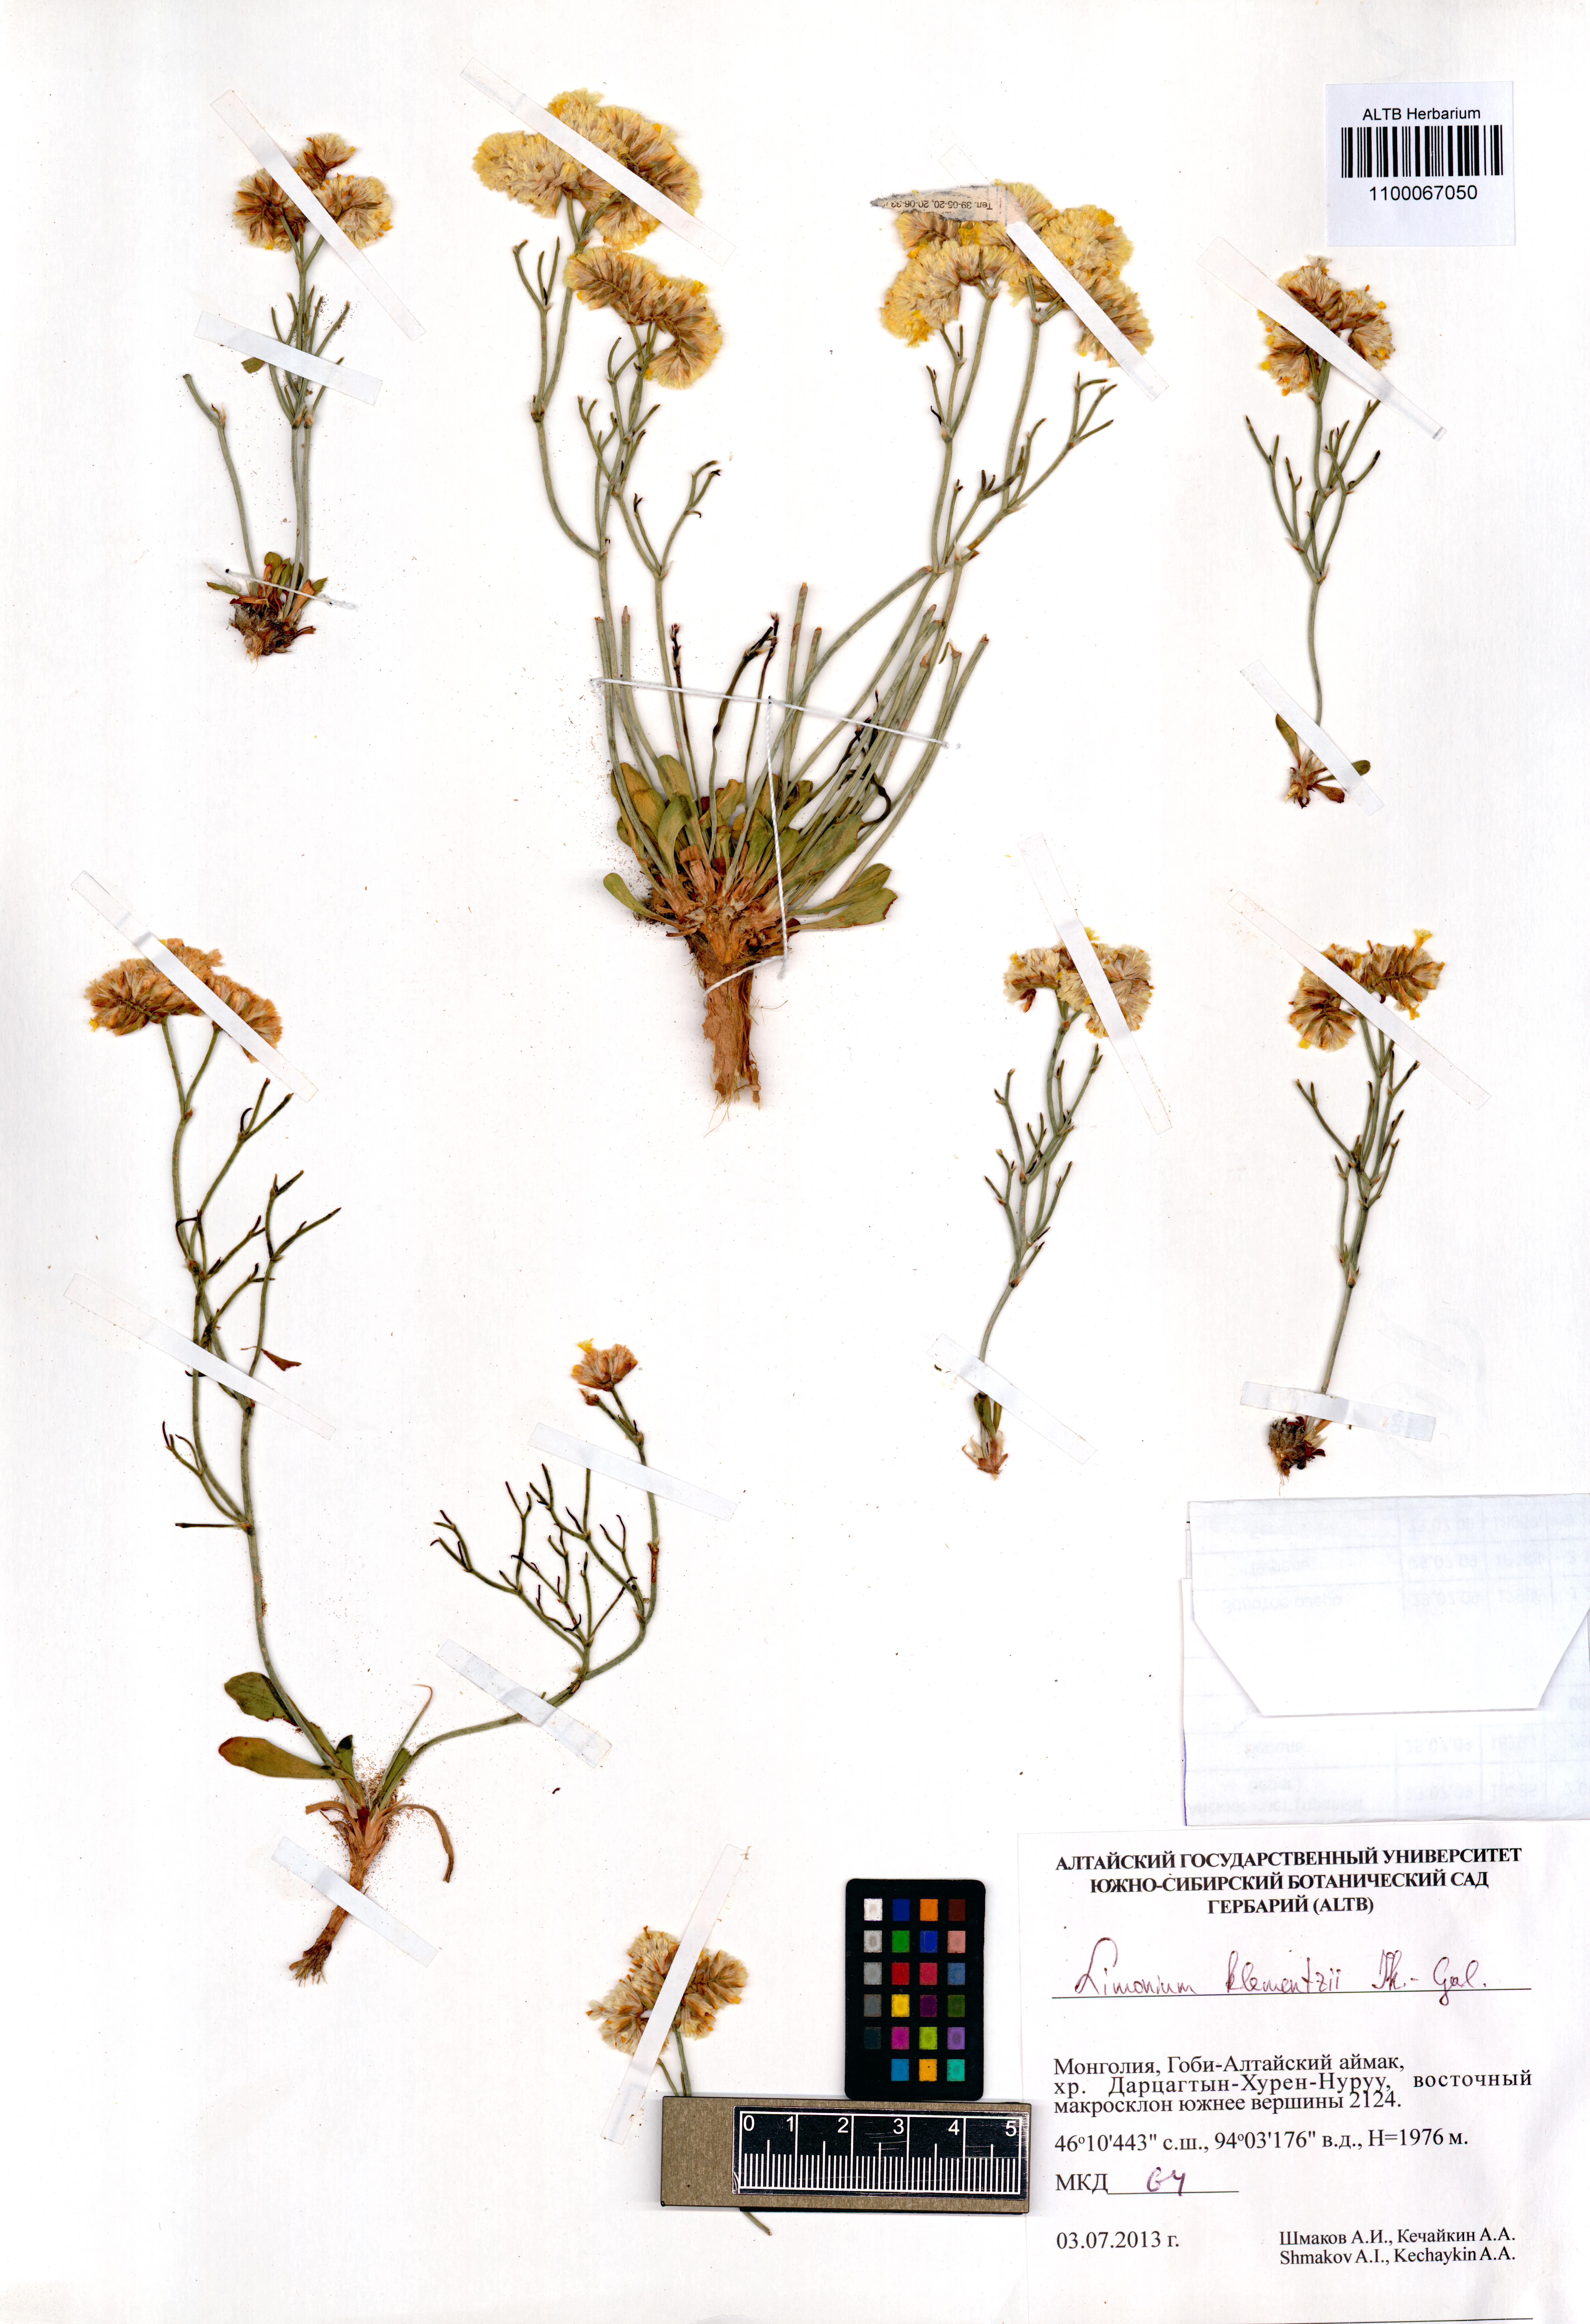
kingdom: Plantae
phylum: Tracheophyta
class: Magnoliopsida
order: Caryophyllales
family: Plumbaginaceae
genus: Limonium
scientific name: Limonium klementzii
